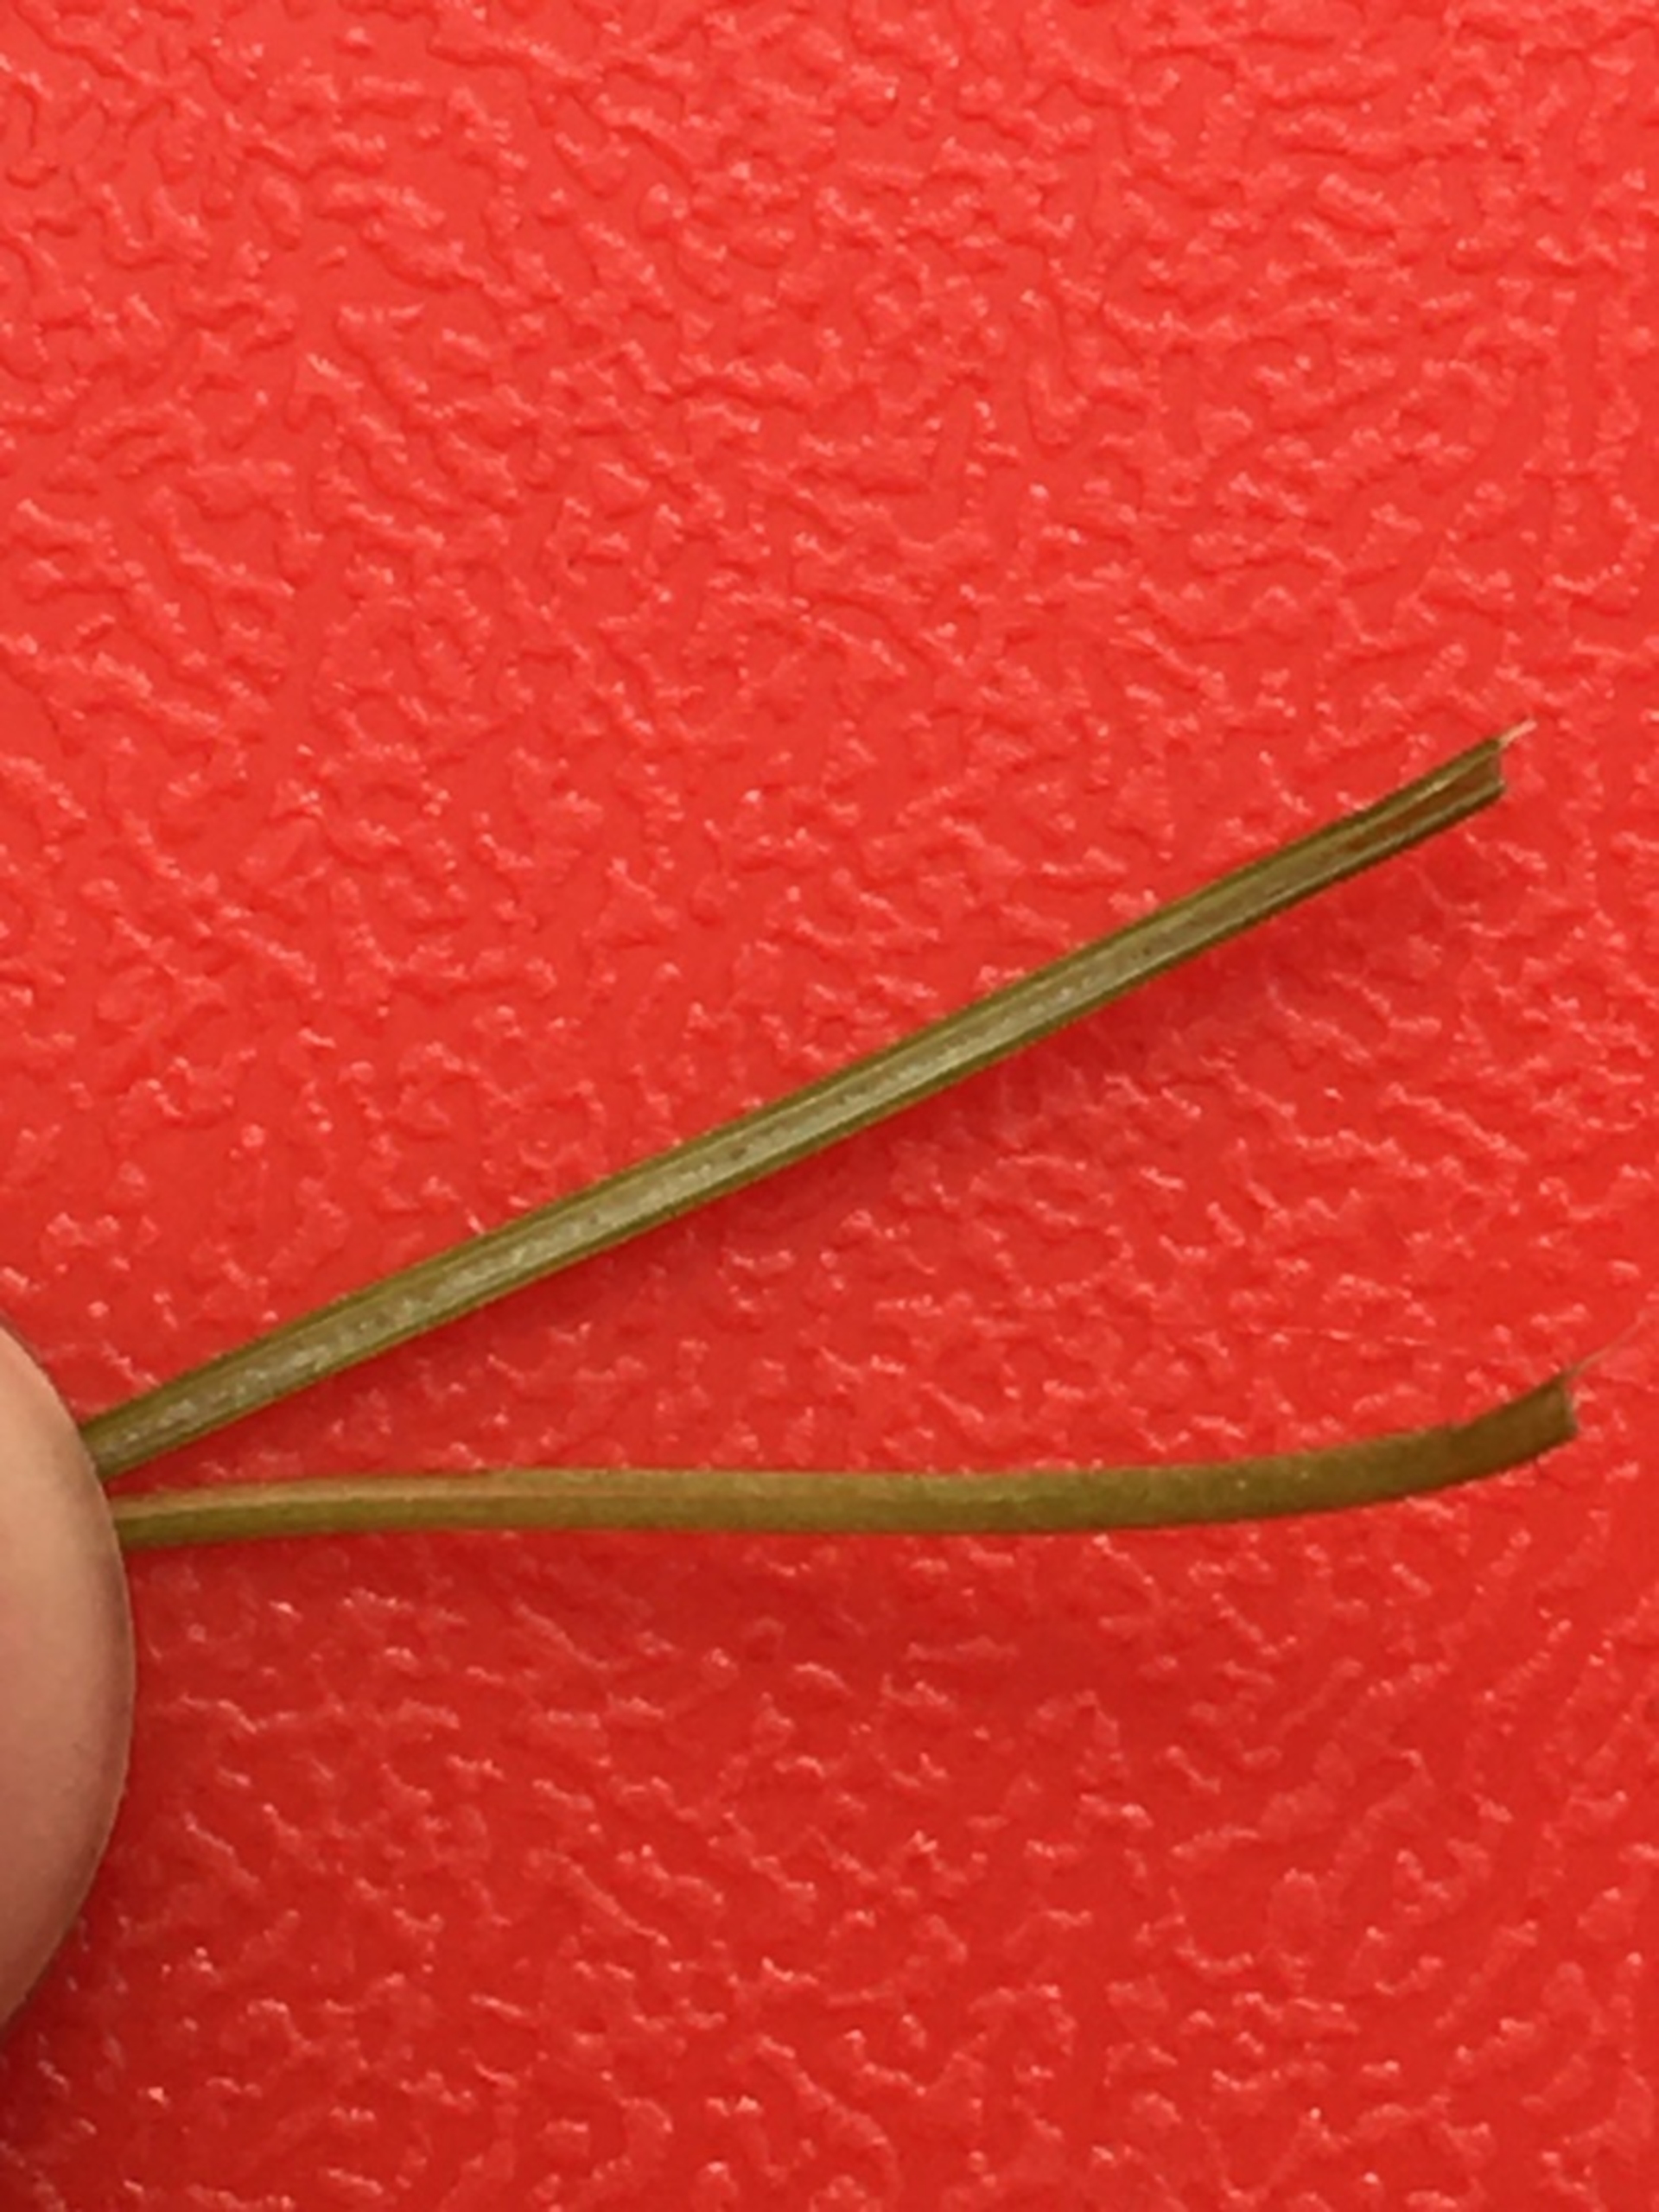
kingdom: Plantae
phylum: Tracheophyta
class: Magnoliopsida
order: Fabales
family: Fabaceae
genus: Lotus
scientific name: Lotus corniculatus
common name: Almindelig kællingetand
